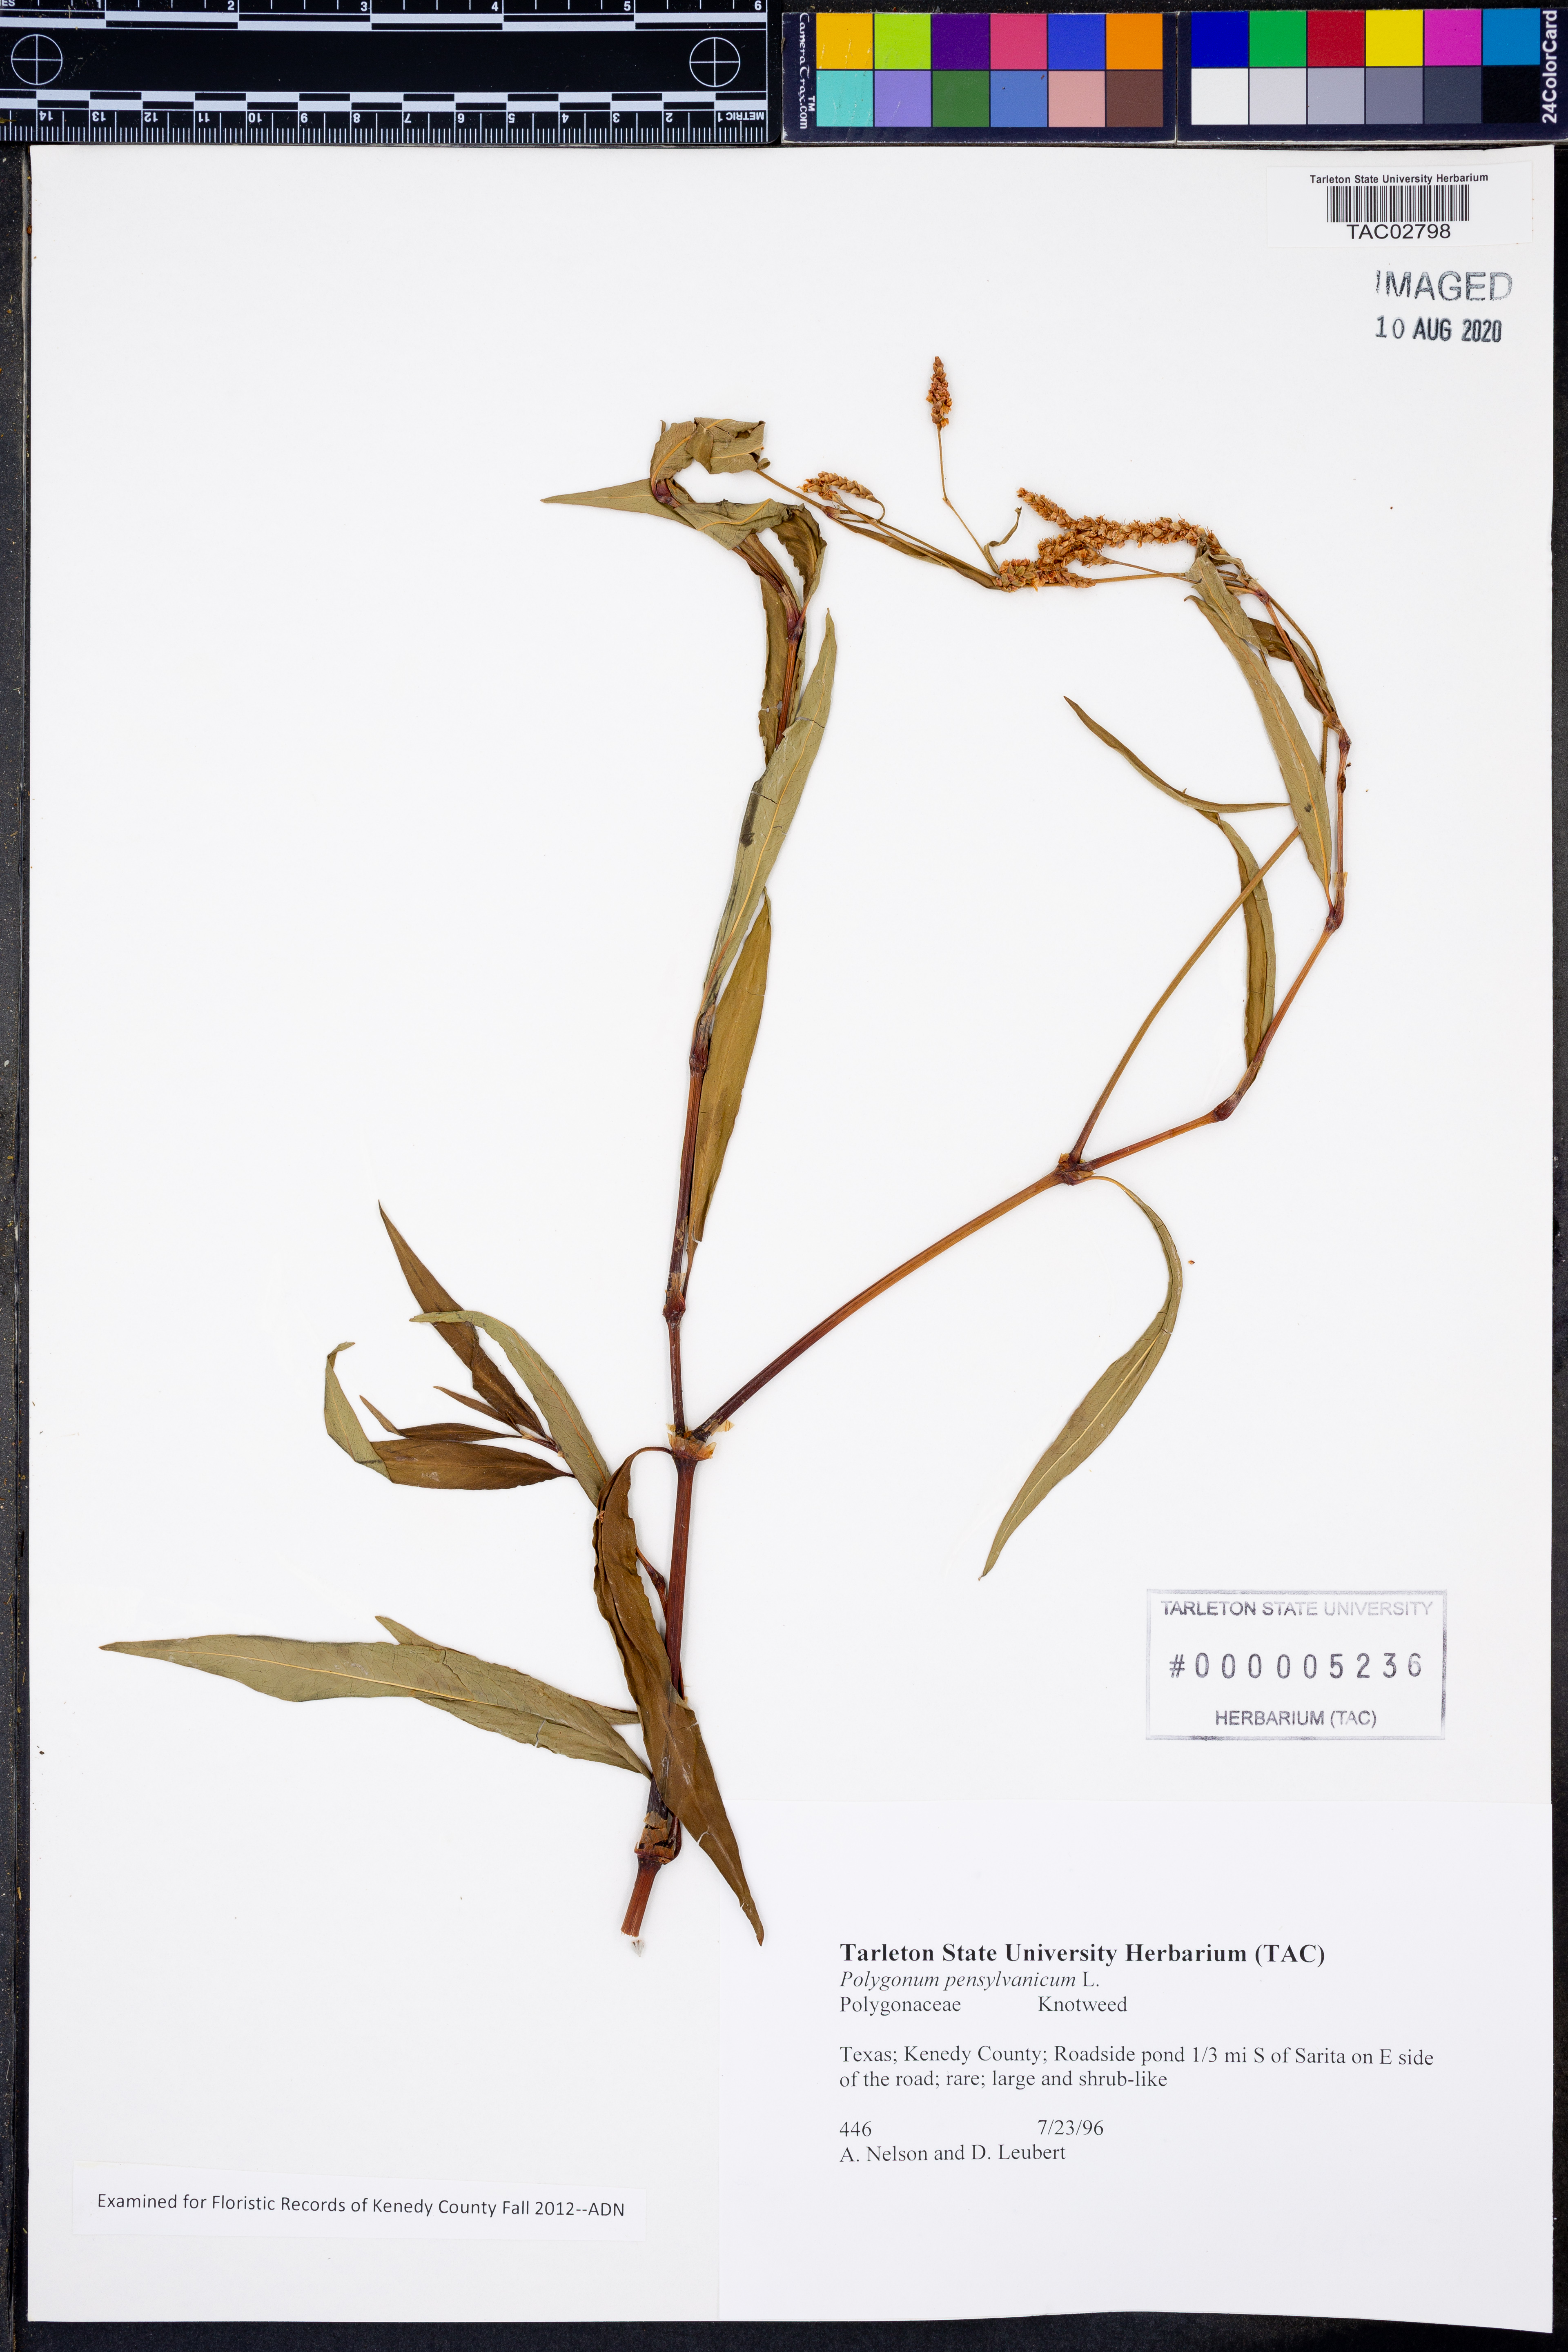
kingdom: Plantae
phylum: Tracheophyta
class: Magnoliopsida
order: Caryophyllales
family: Polygonaceae
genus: Persicaria
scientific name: Persicaria pensylvanica
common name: Pinkweed
